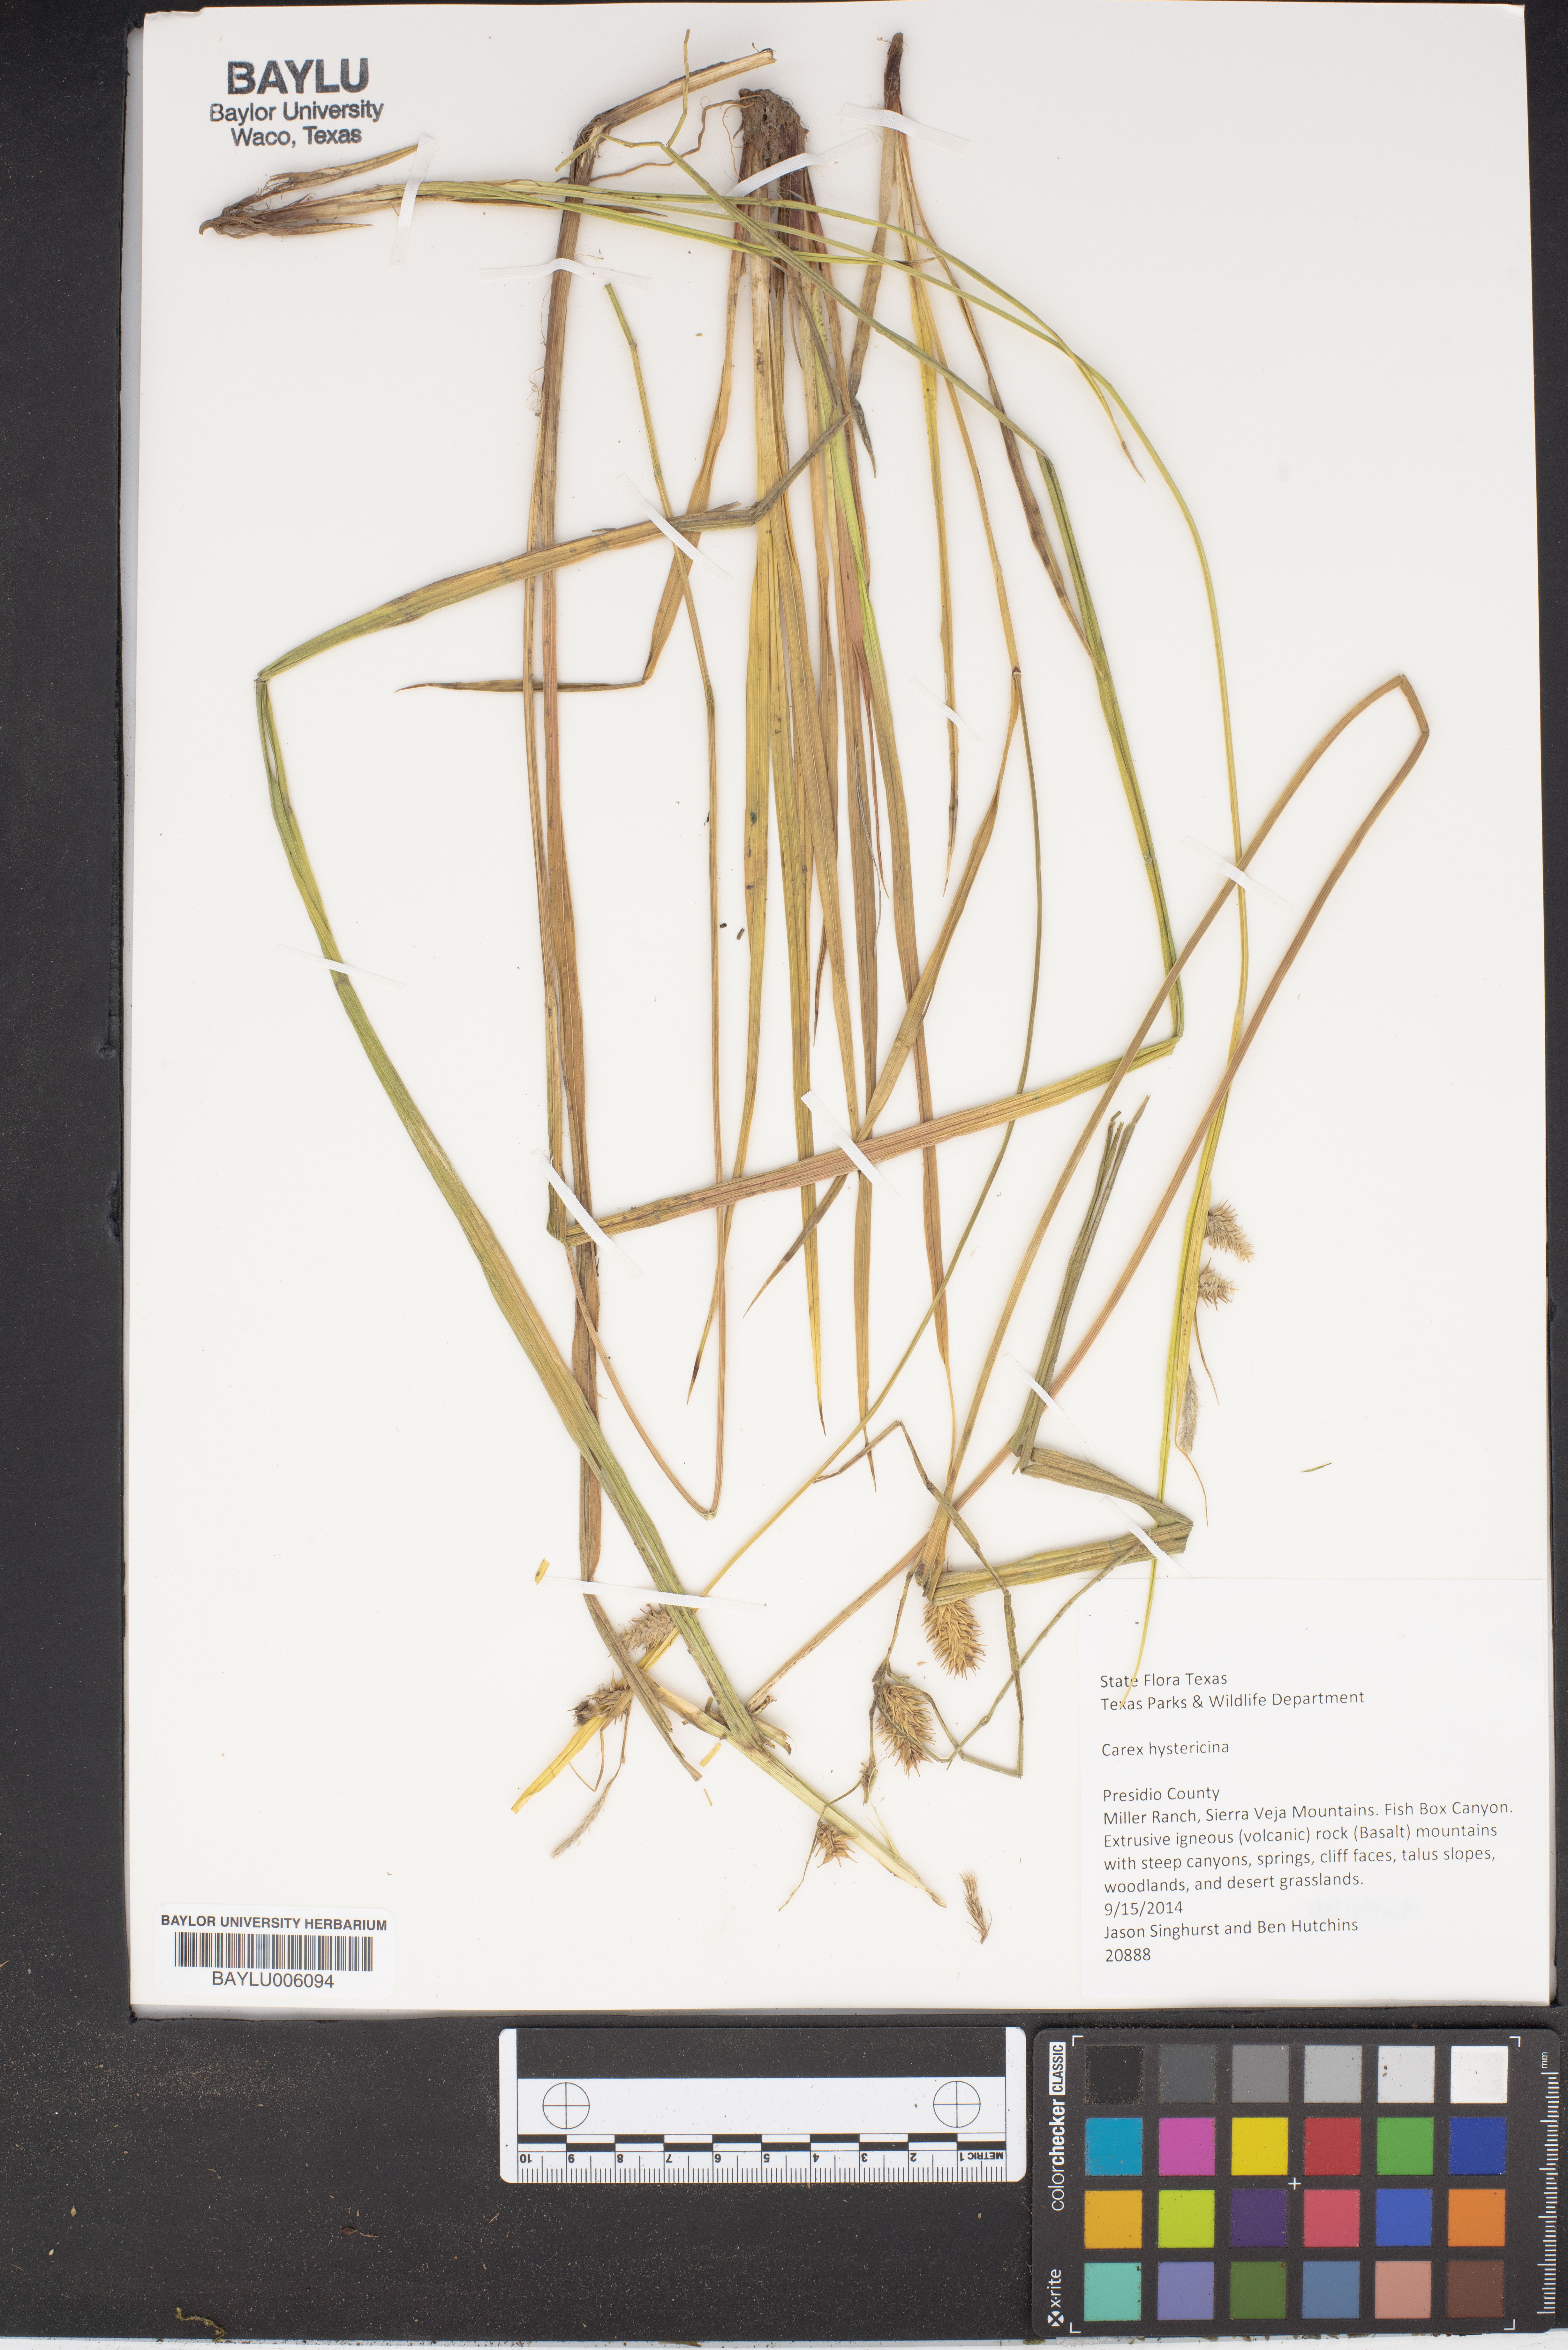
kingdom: Plantae
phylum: Tracheophyta
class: Liliopsida
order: Poales
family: Cyperaceae
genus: Carex
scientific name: Carex hystericina
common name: Bottlebrush sedge
